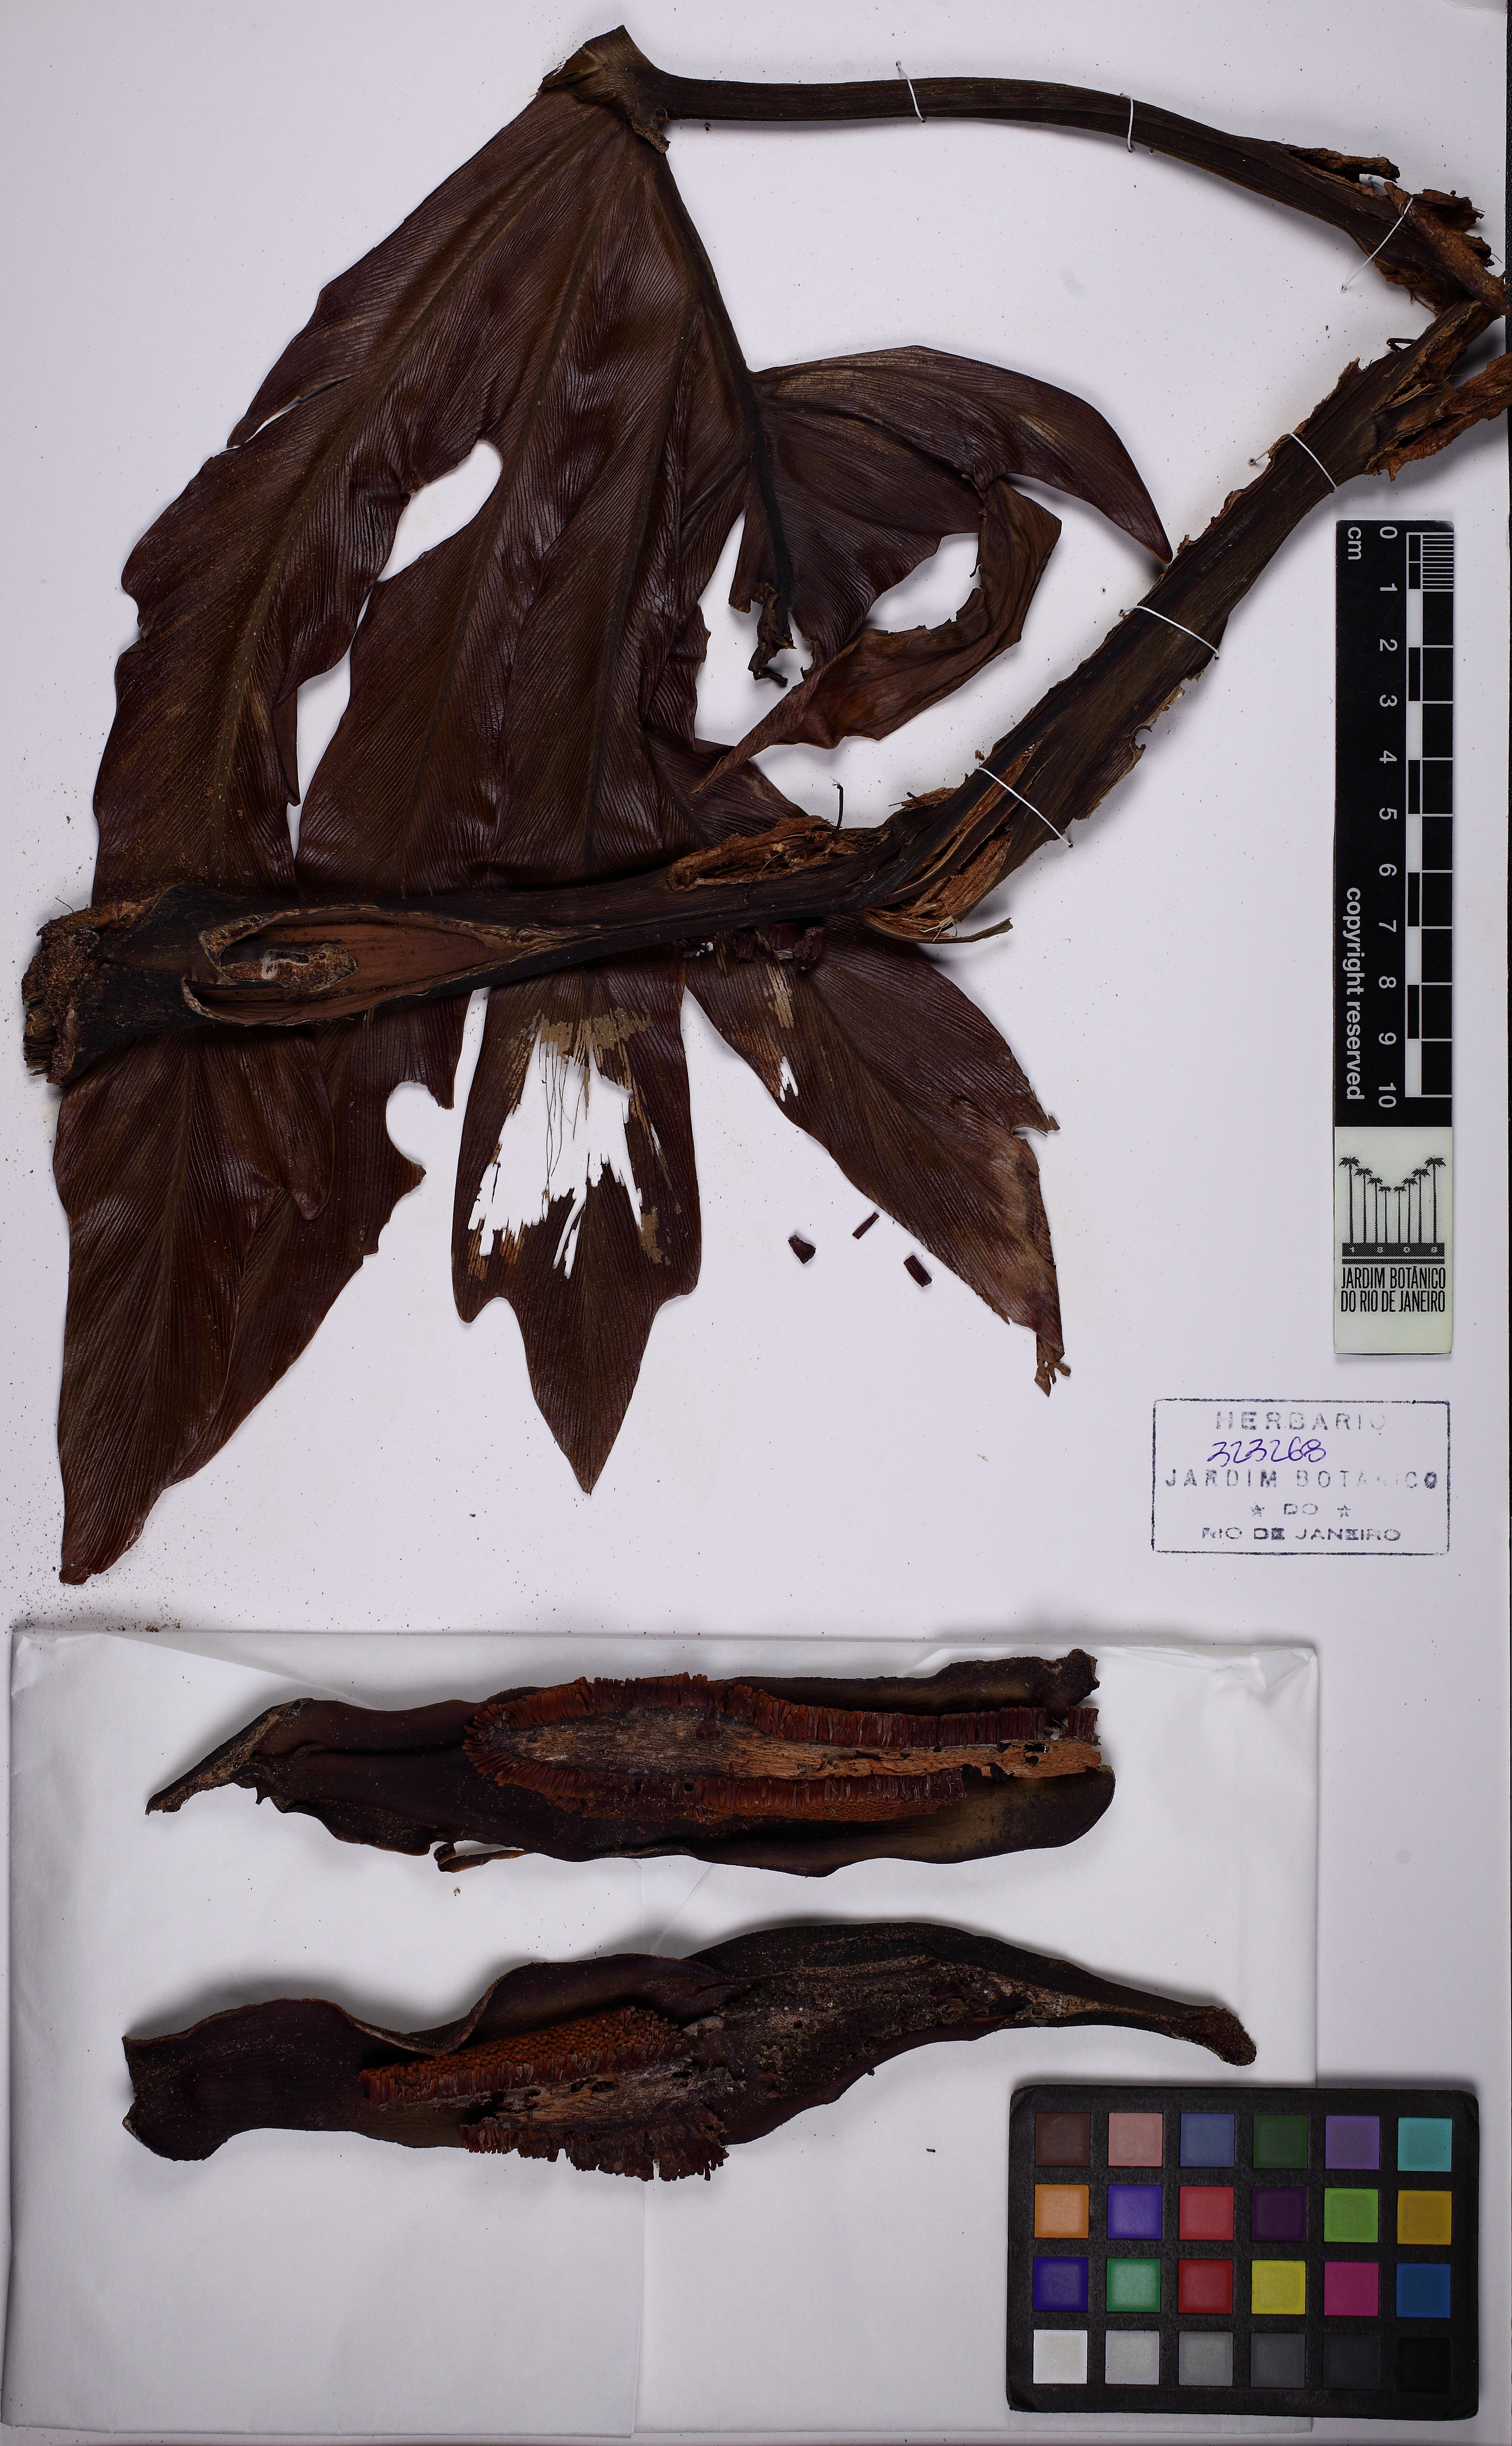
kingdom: Plantae
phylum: Tracheophyta
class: Liliopsida
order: Alismatales
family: Araceae
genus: Thaumatophyllum
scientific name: Thaumatophyllum bipinnatifidum
